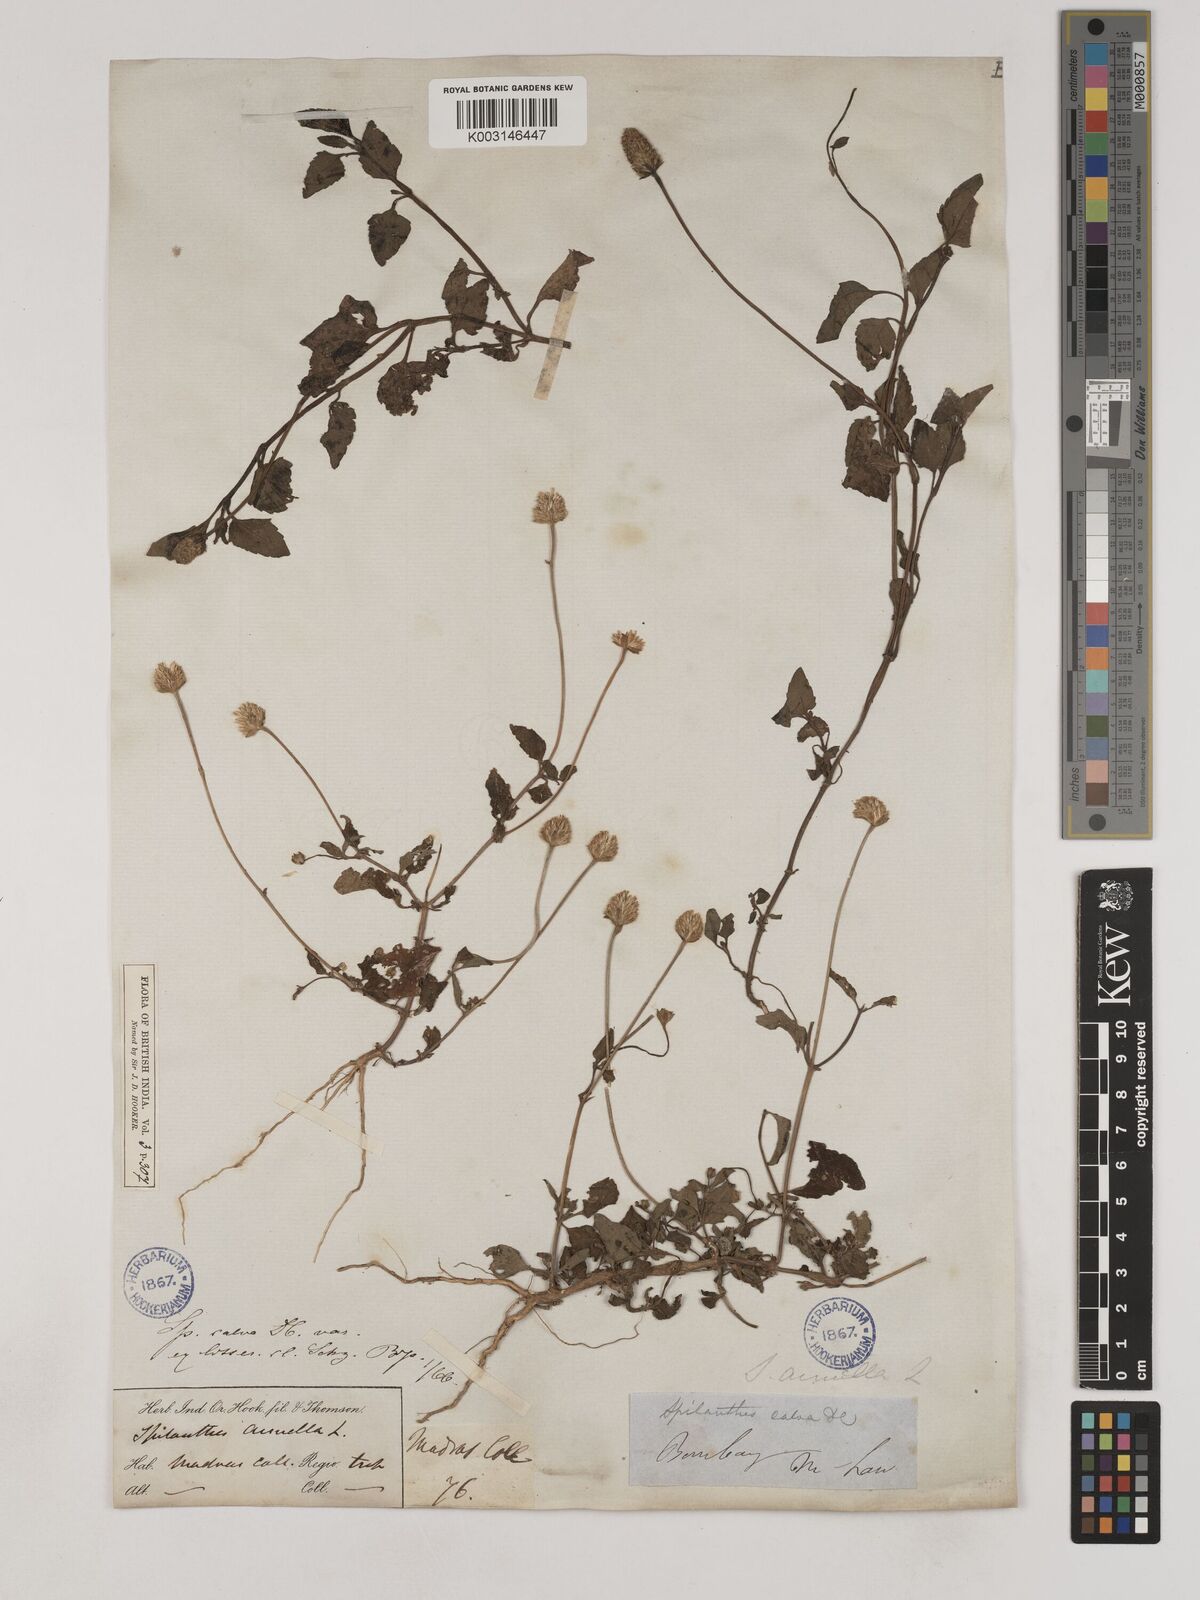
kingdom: Plantae
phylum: Tracheophyta
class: Magnoliopsida
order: Asterales
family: Asteraceae
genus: Acmella
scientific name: Acmella paniculata
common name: Panicled spot flower
